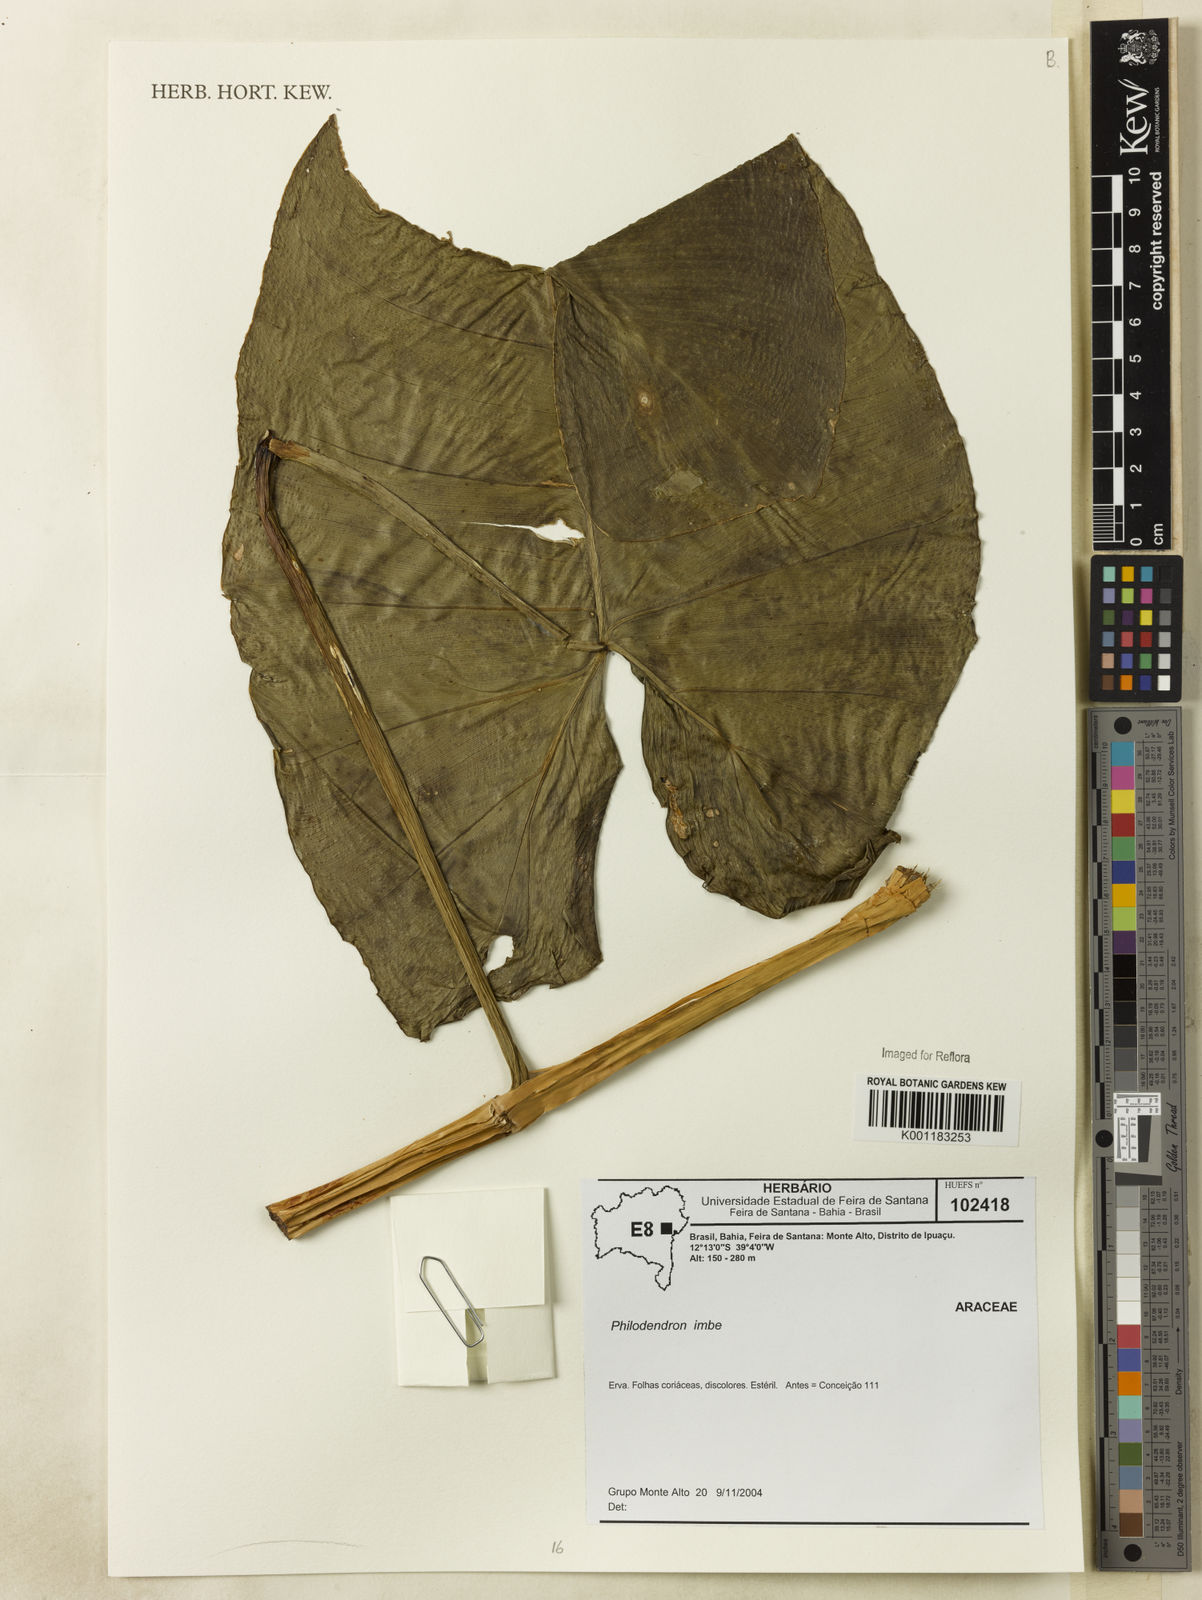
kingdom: Plantae
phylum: Tracheophyta
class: Liliopsida
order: Alismatales
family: Araceae
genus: Philodendron
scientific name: Philodendron imbe
